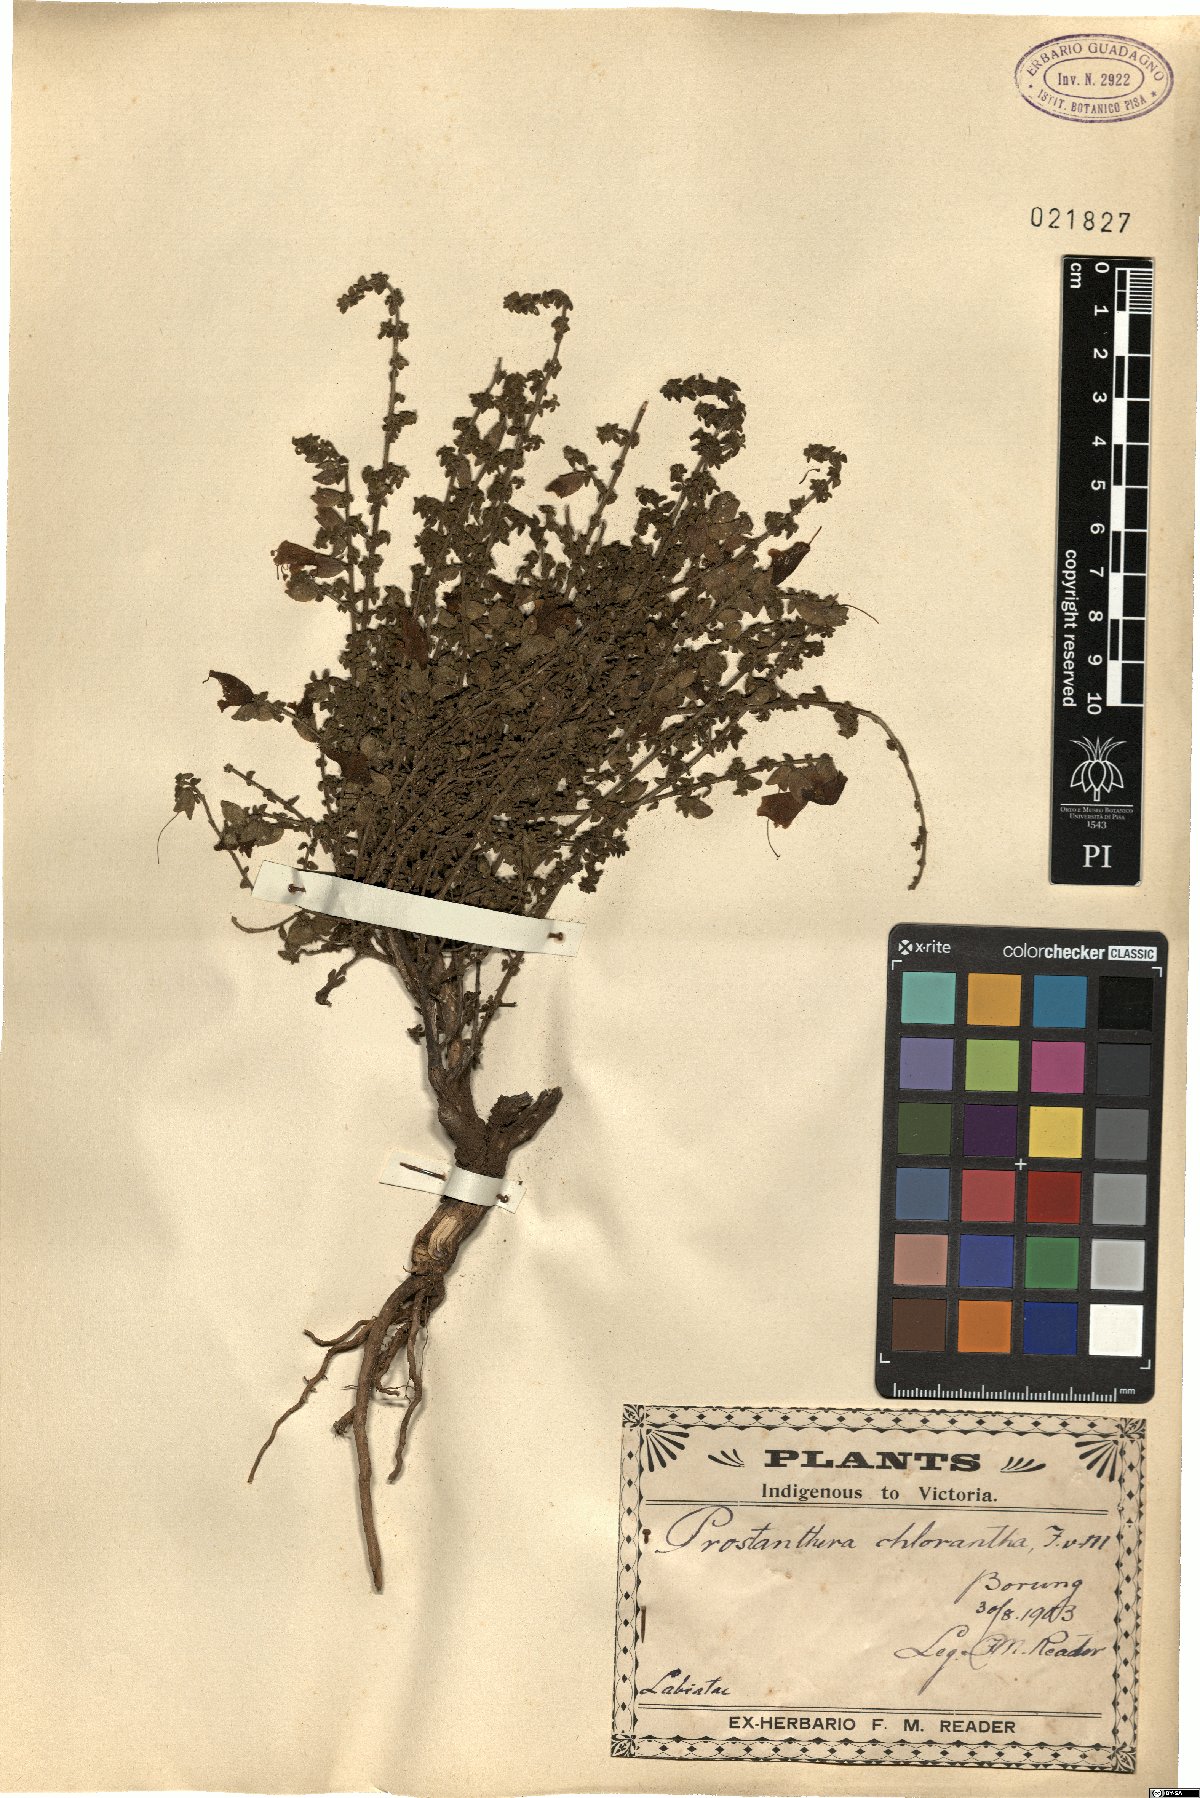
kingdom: Plantae
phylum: Tracheophyta
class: Magnoliopsida
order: Lamiales
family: Lamiaceae
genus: Prostanthera
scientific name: Prostanthera chlorantha
